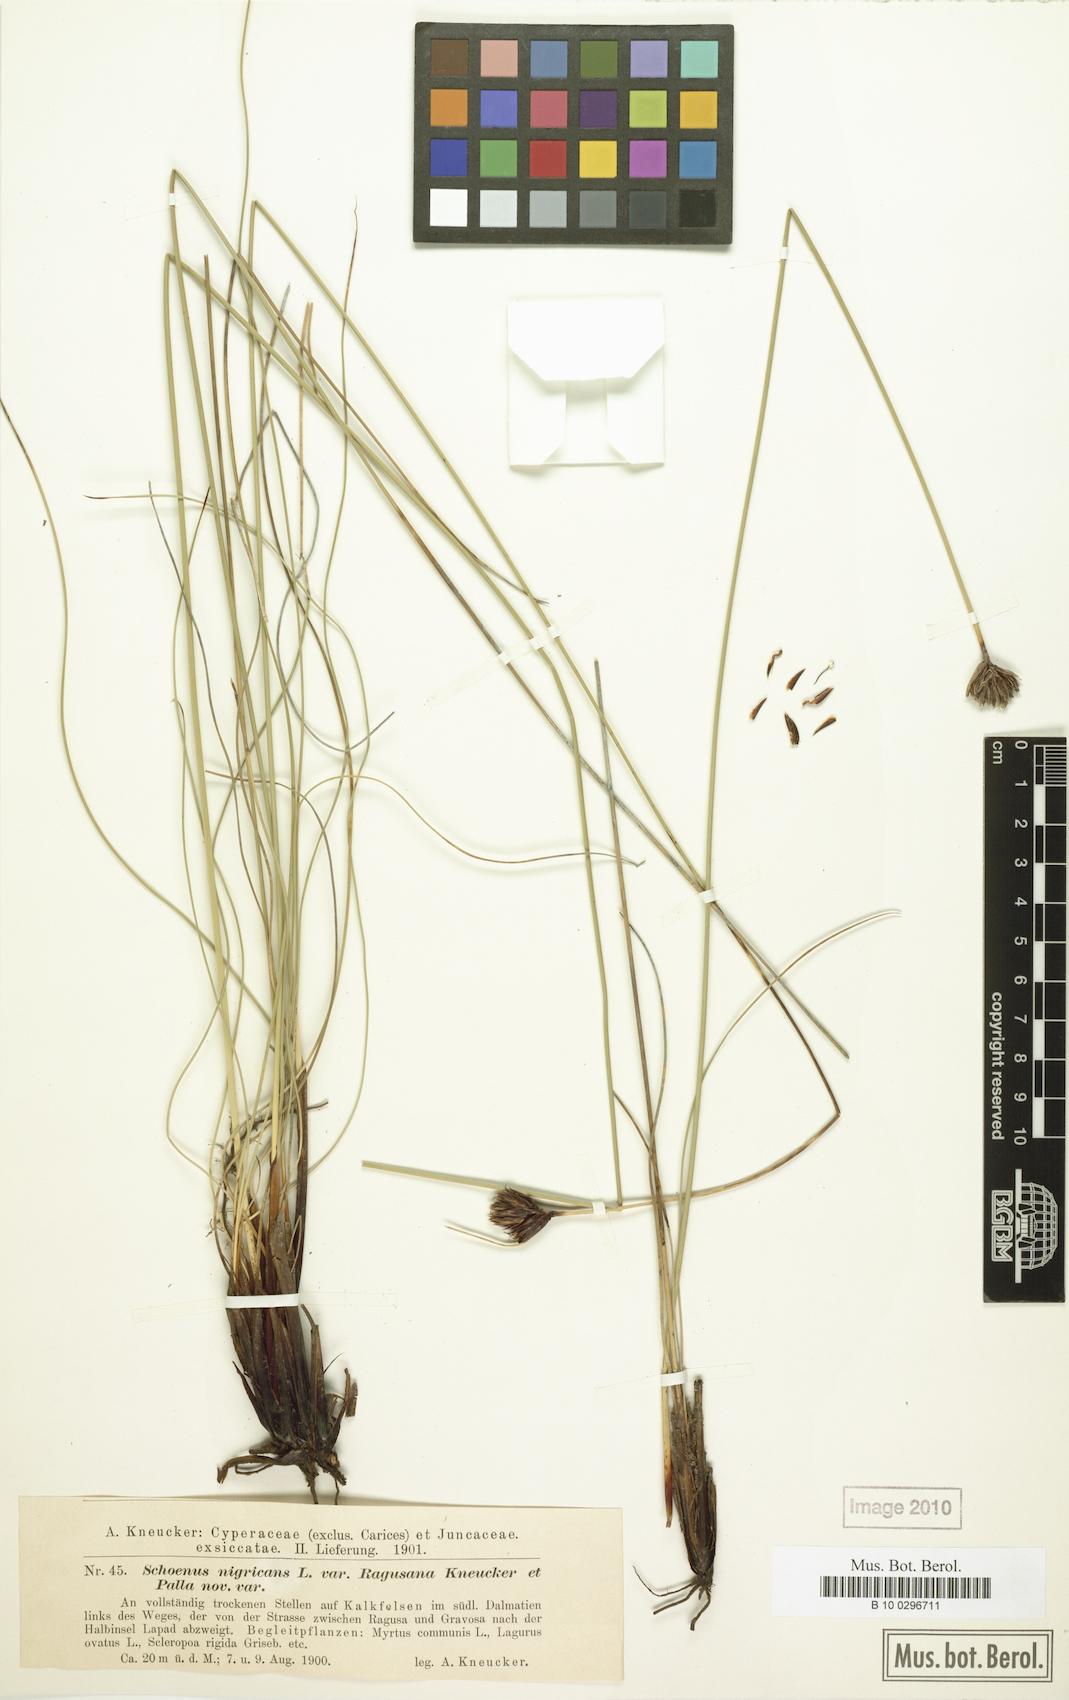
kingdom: Plantae
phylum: Tracheophyta
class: Liliopsida
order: Poales
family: Cyperaceae
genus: Schoenus
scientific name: Schoenus nigricans
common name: Black bog-rush
